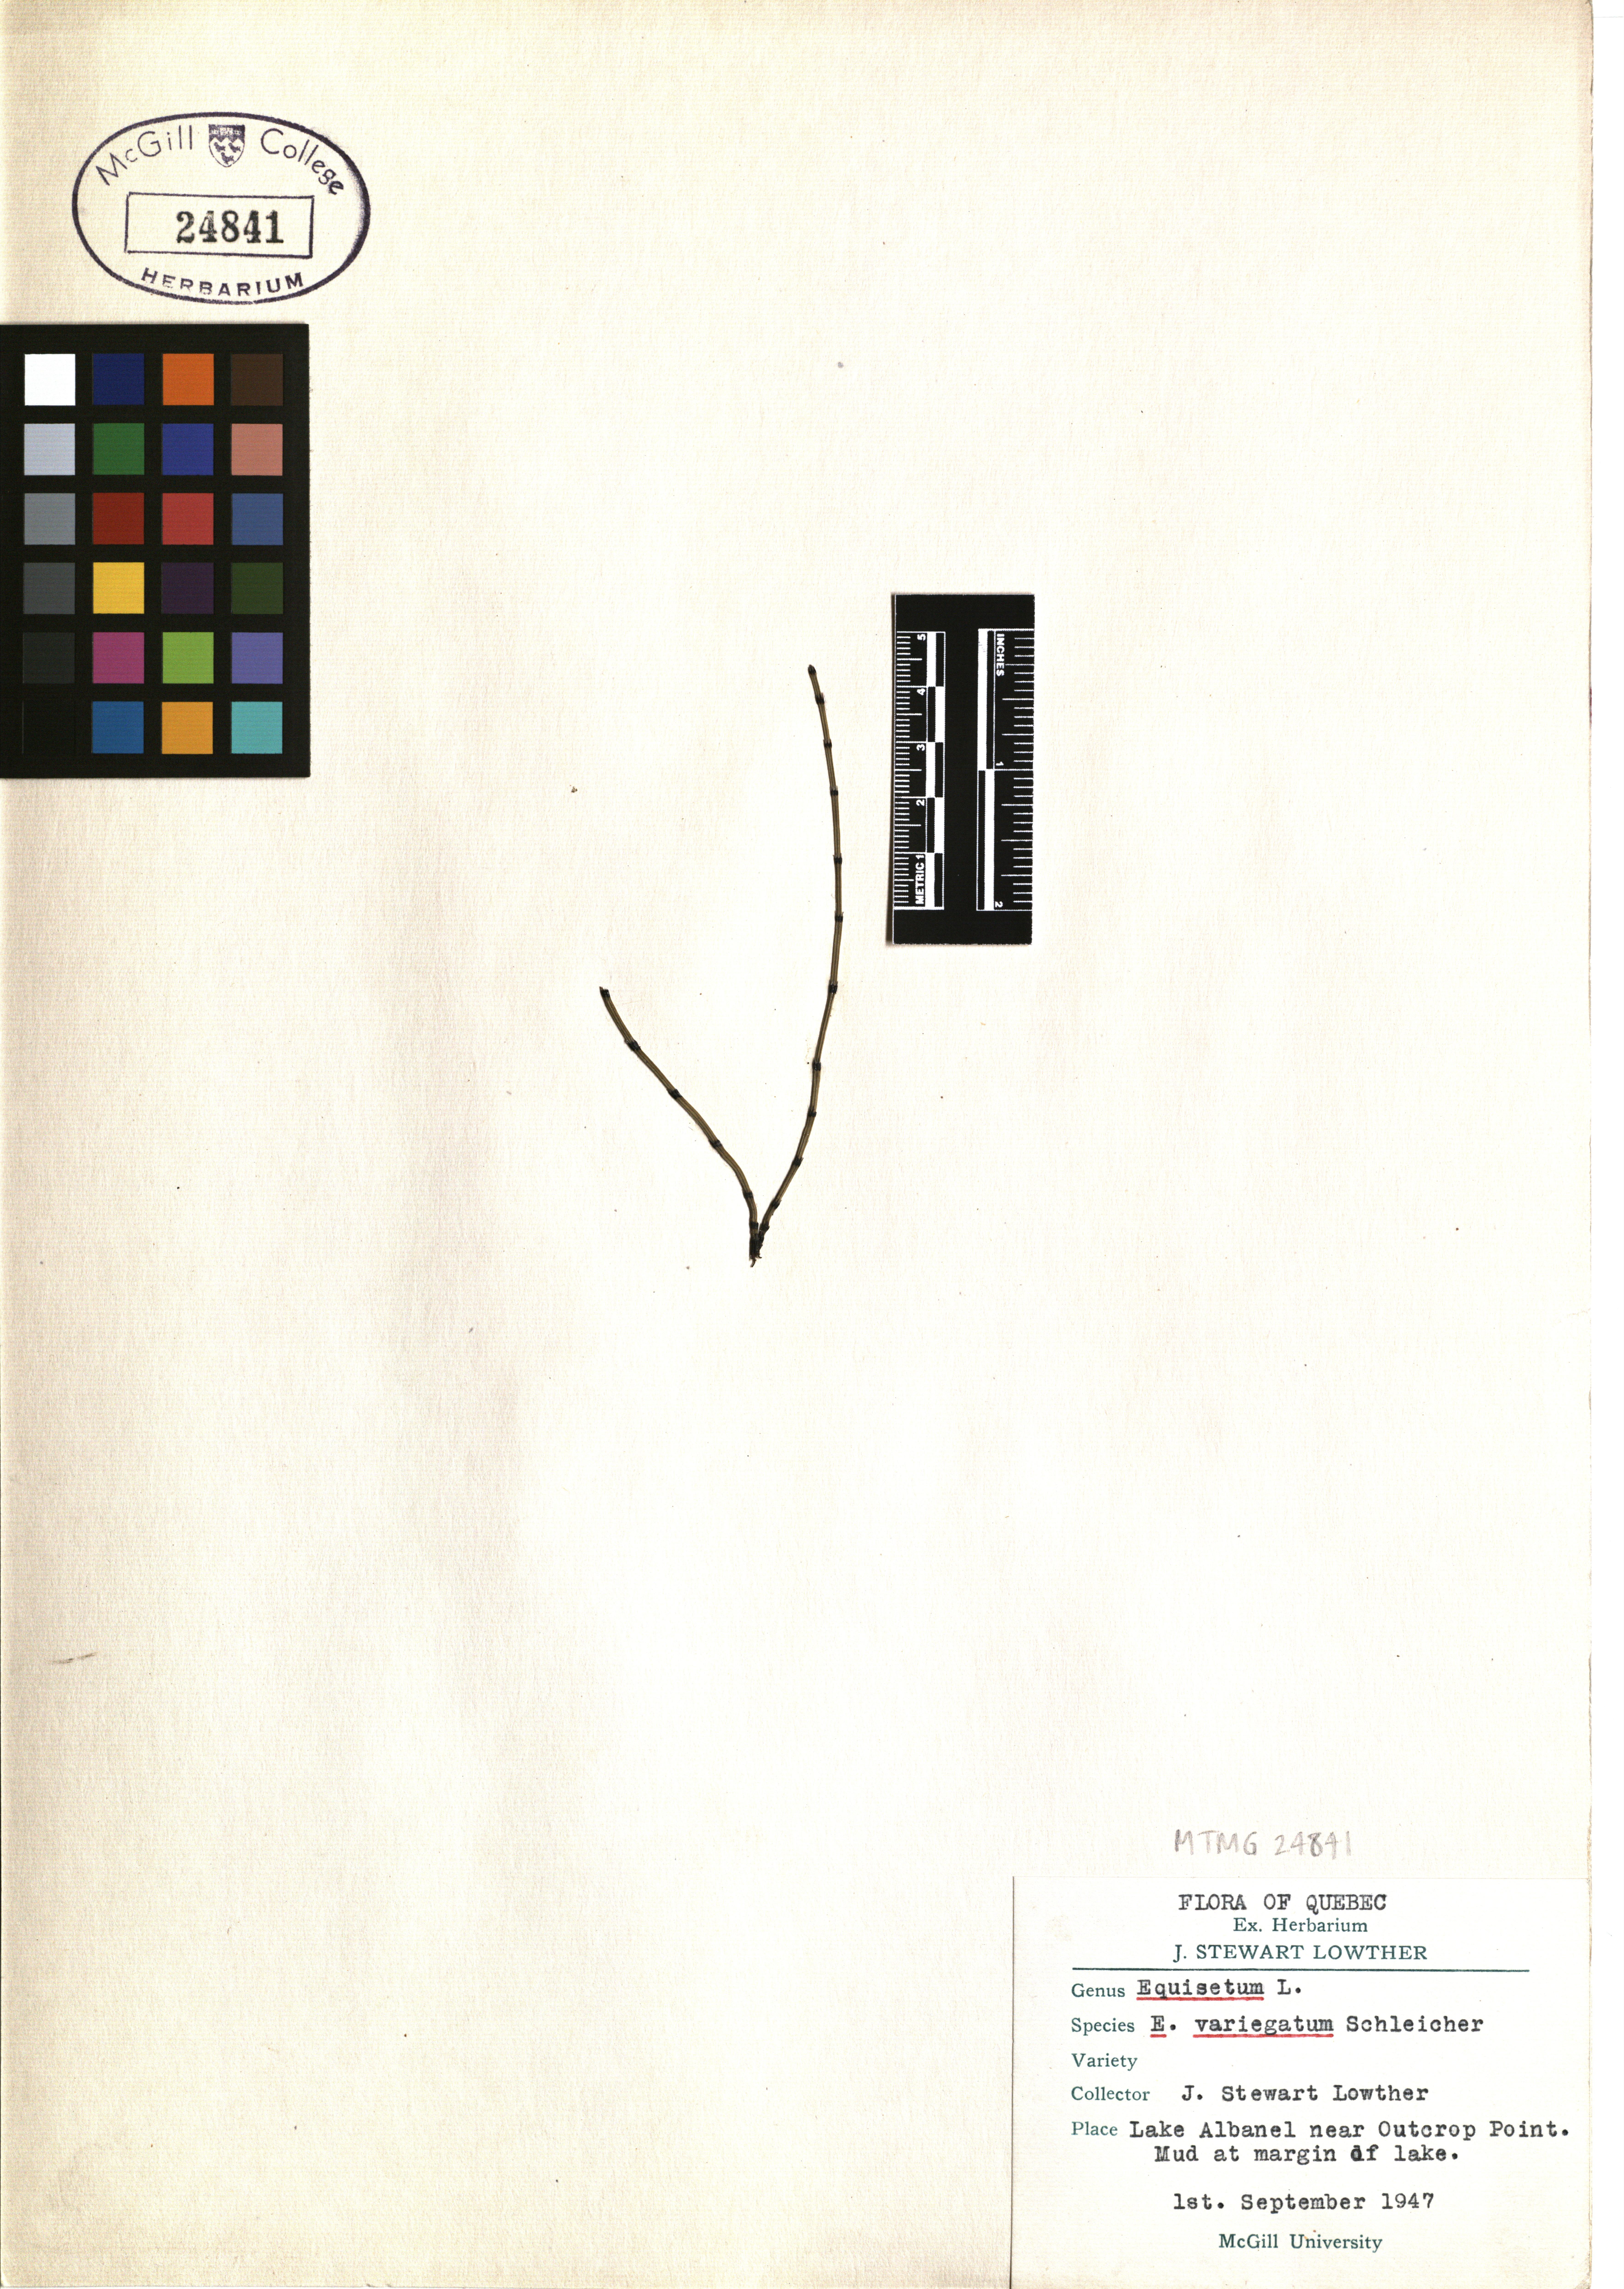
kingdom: Plantae
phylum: Tracheophyta
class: Polypodiopsida
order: Equisetales
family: Equisetaceae
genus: Equisetum
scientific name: Equisetum variegatum
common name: Variegated horsetail
